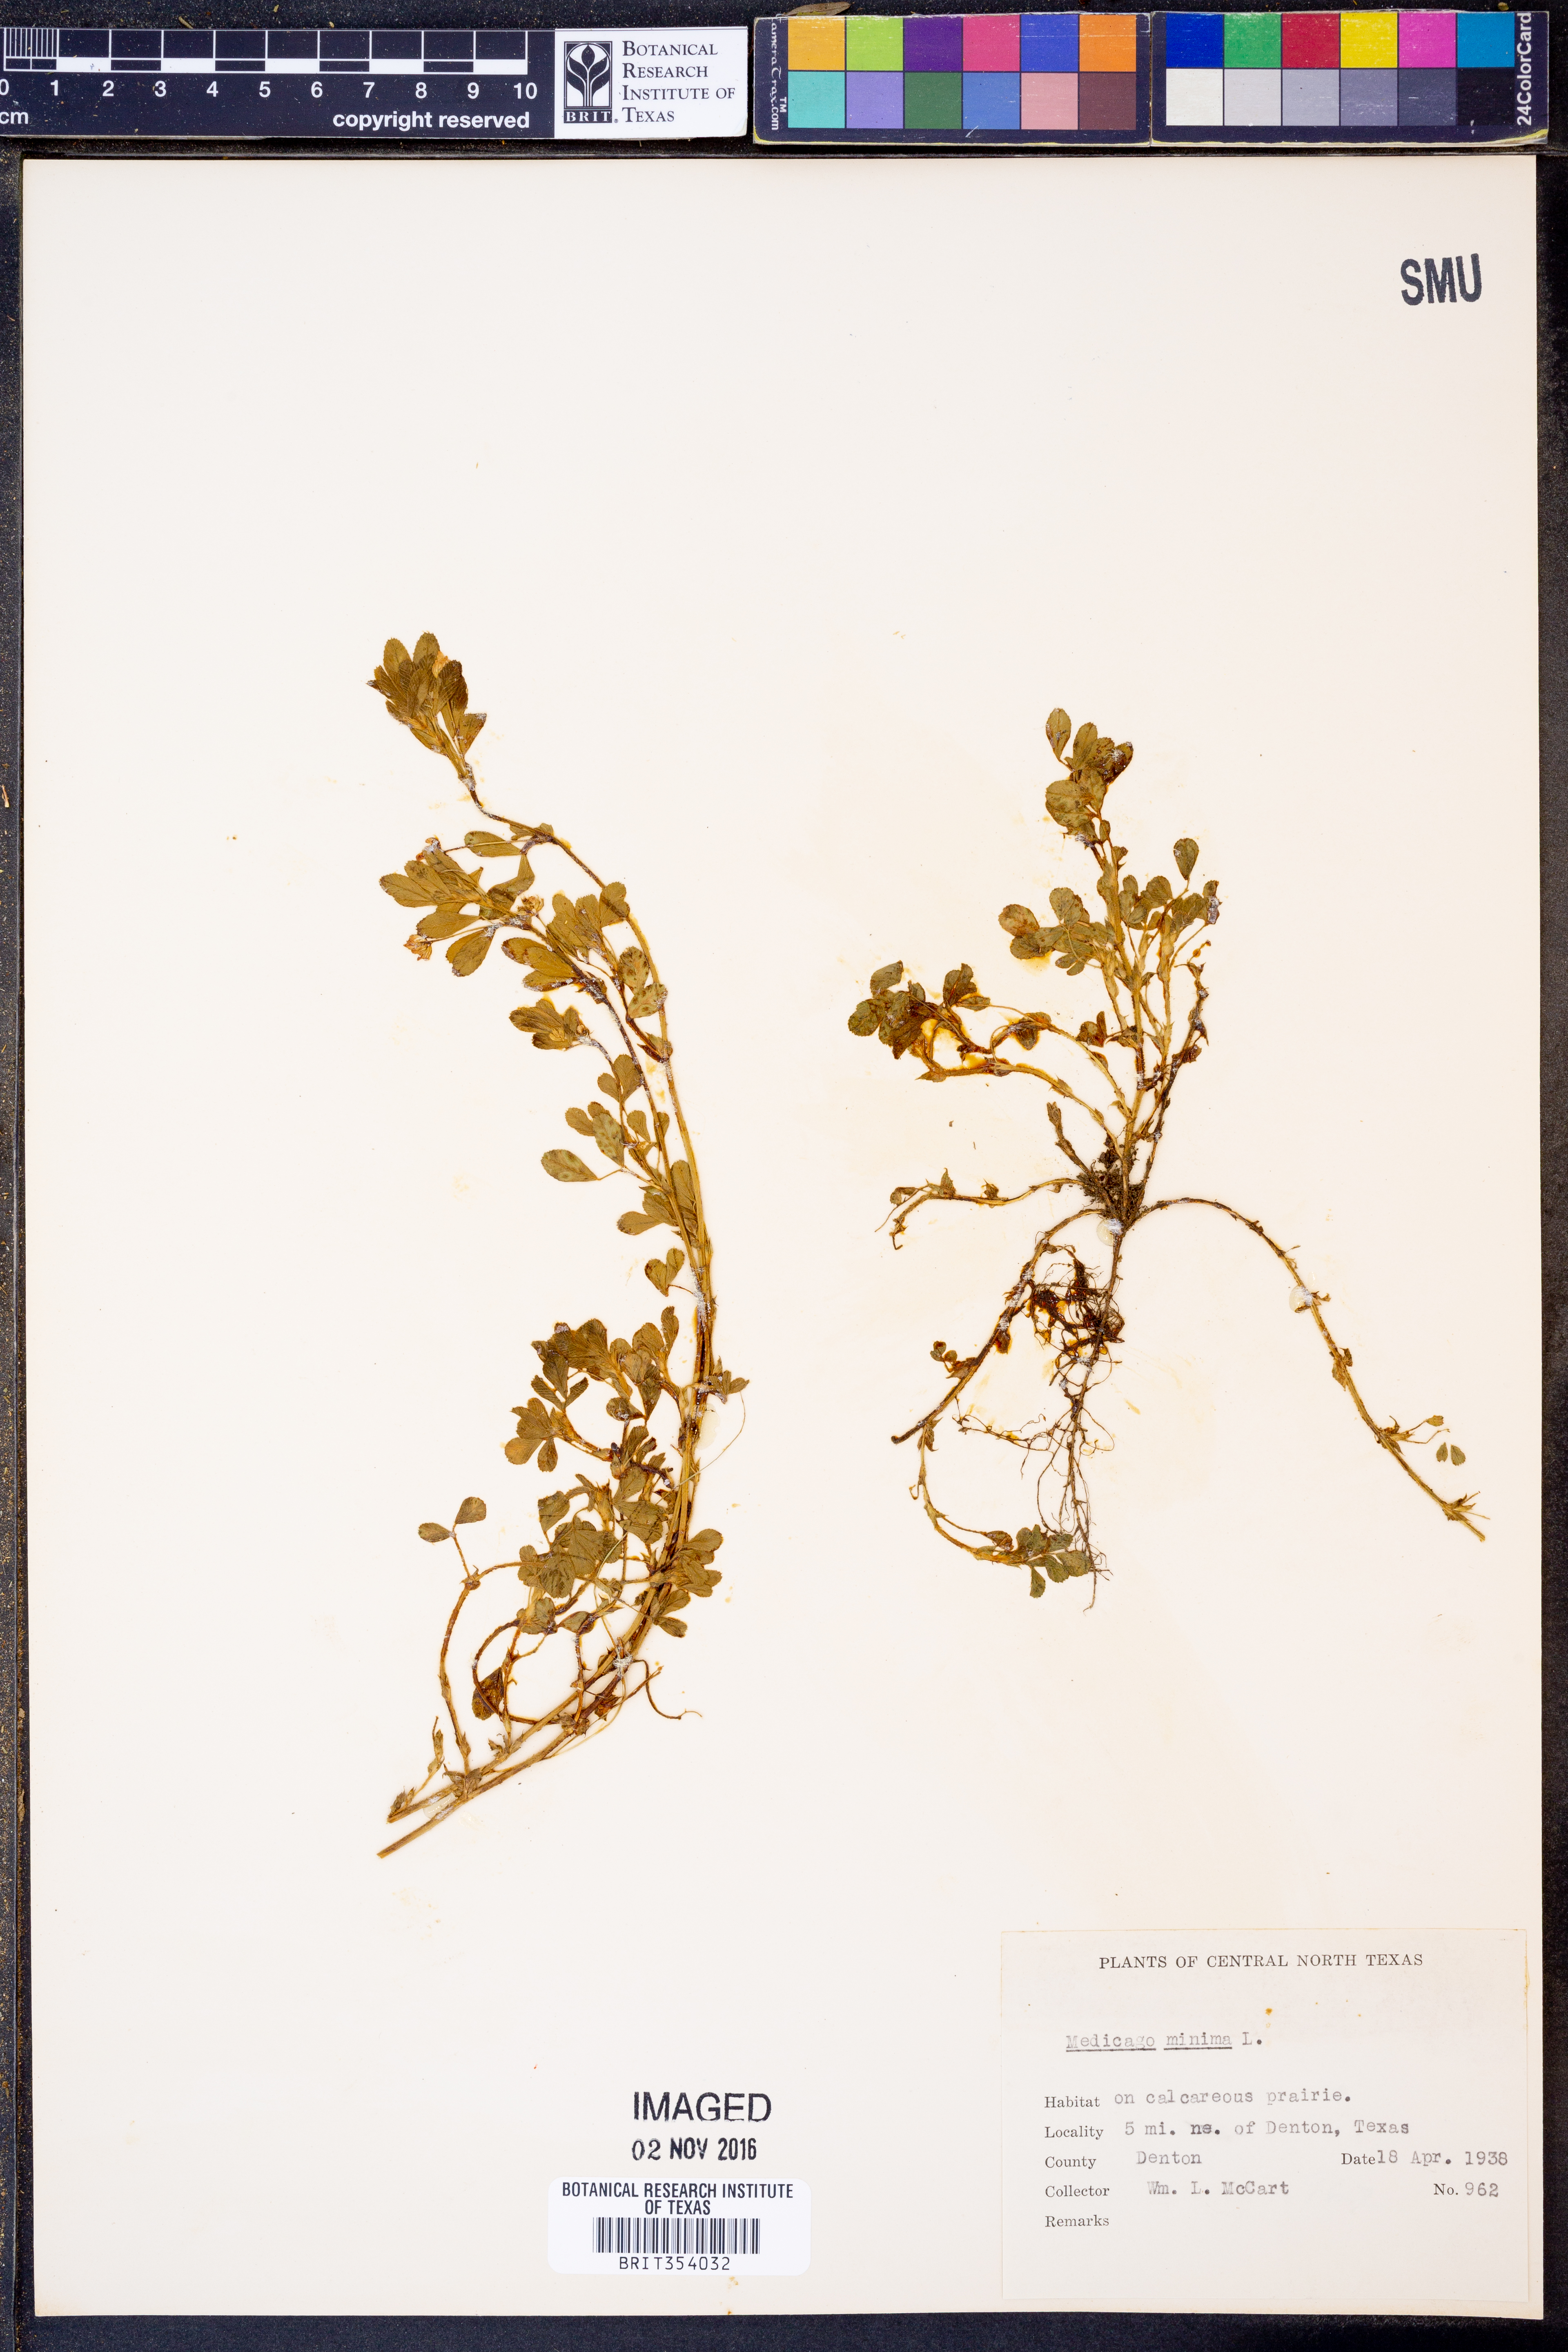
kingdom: Plantae
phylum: Tracheophyta
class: Magnoliopsida
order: Fabales
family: Fabaceae
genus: Medicago
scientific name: Medicago minima
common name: Little bur-clover
